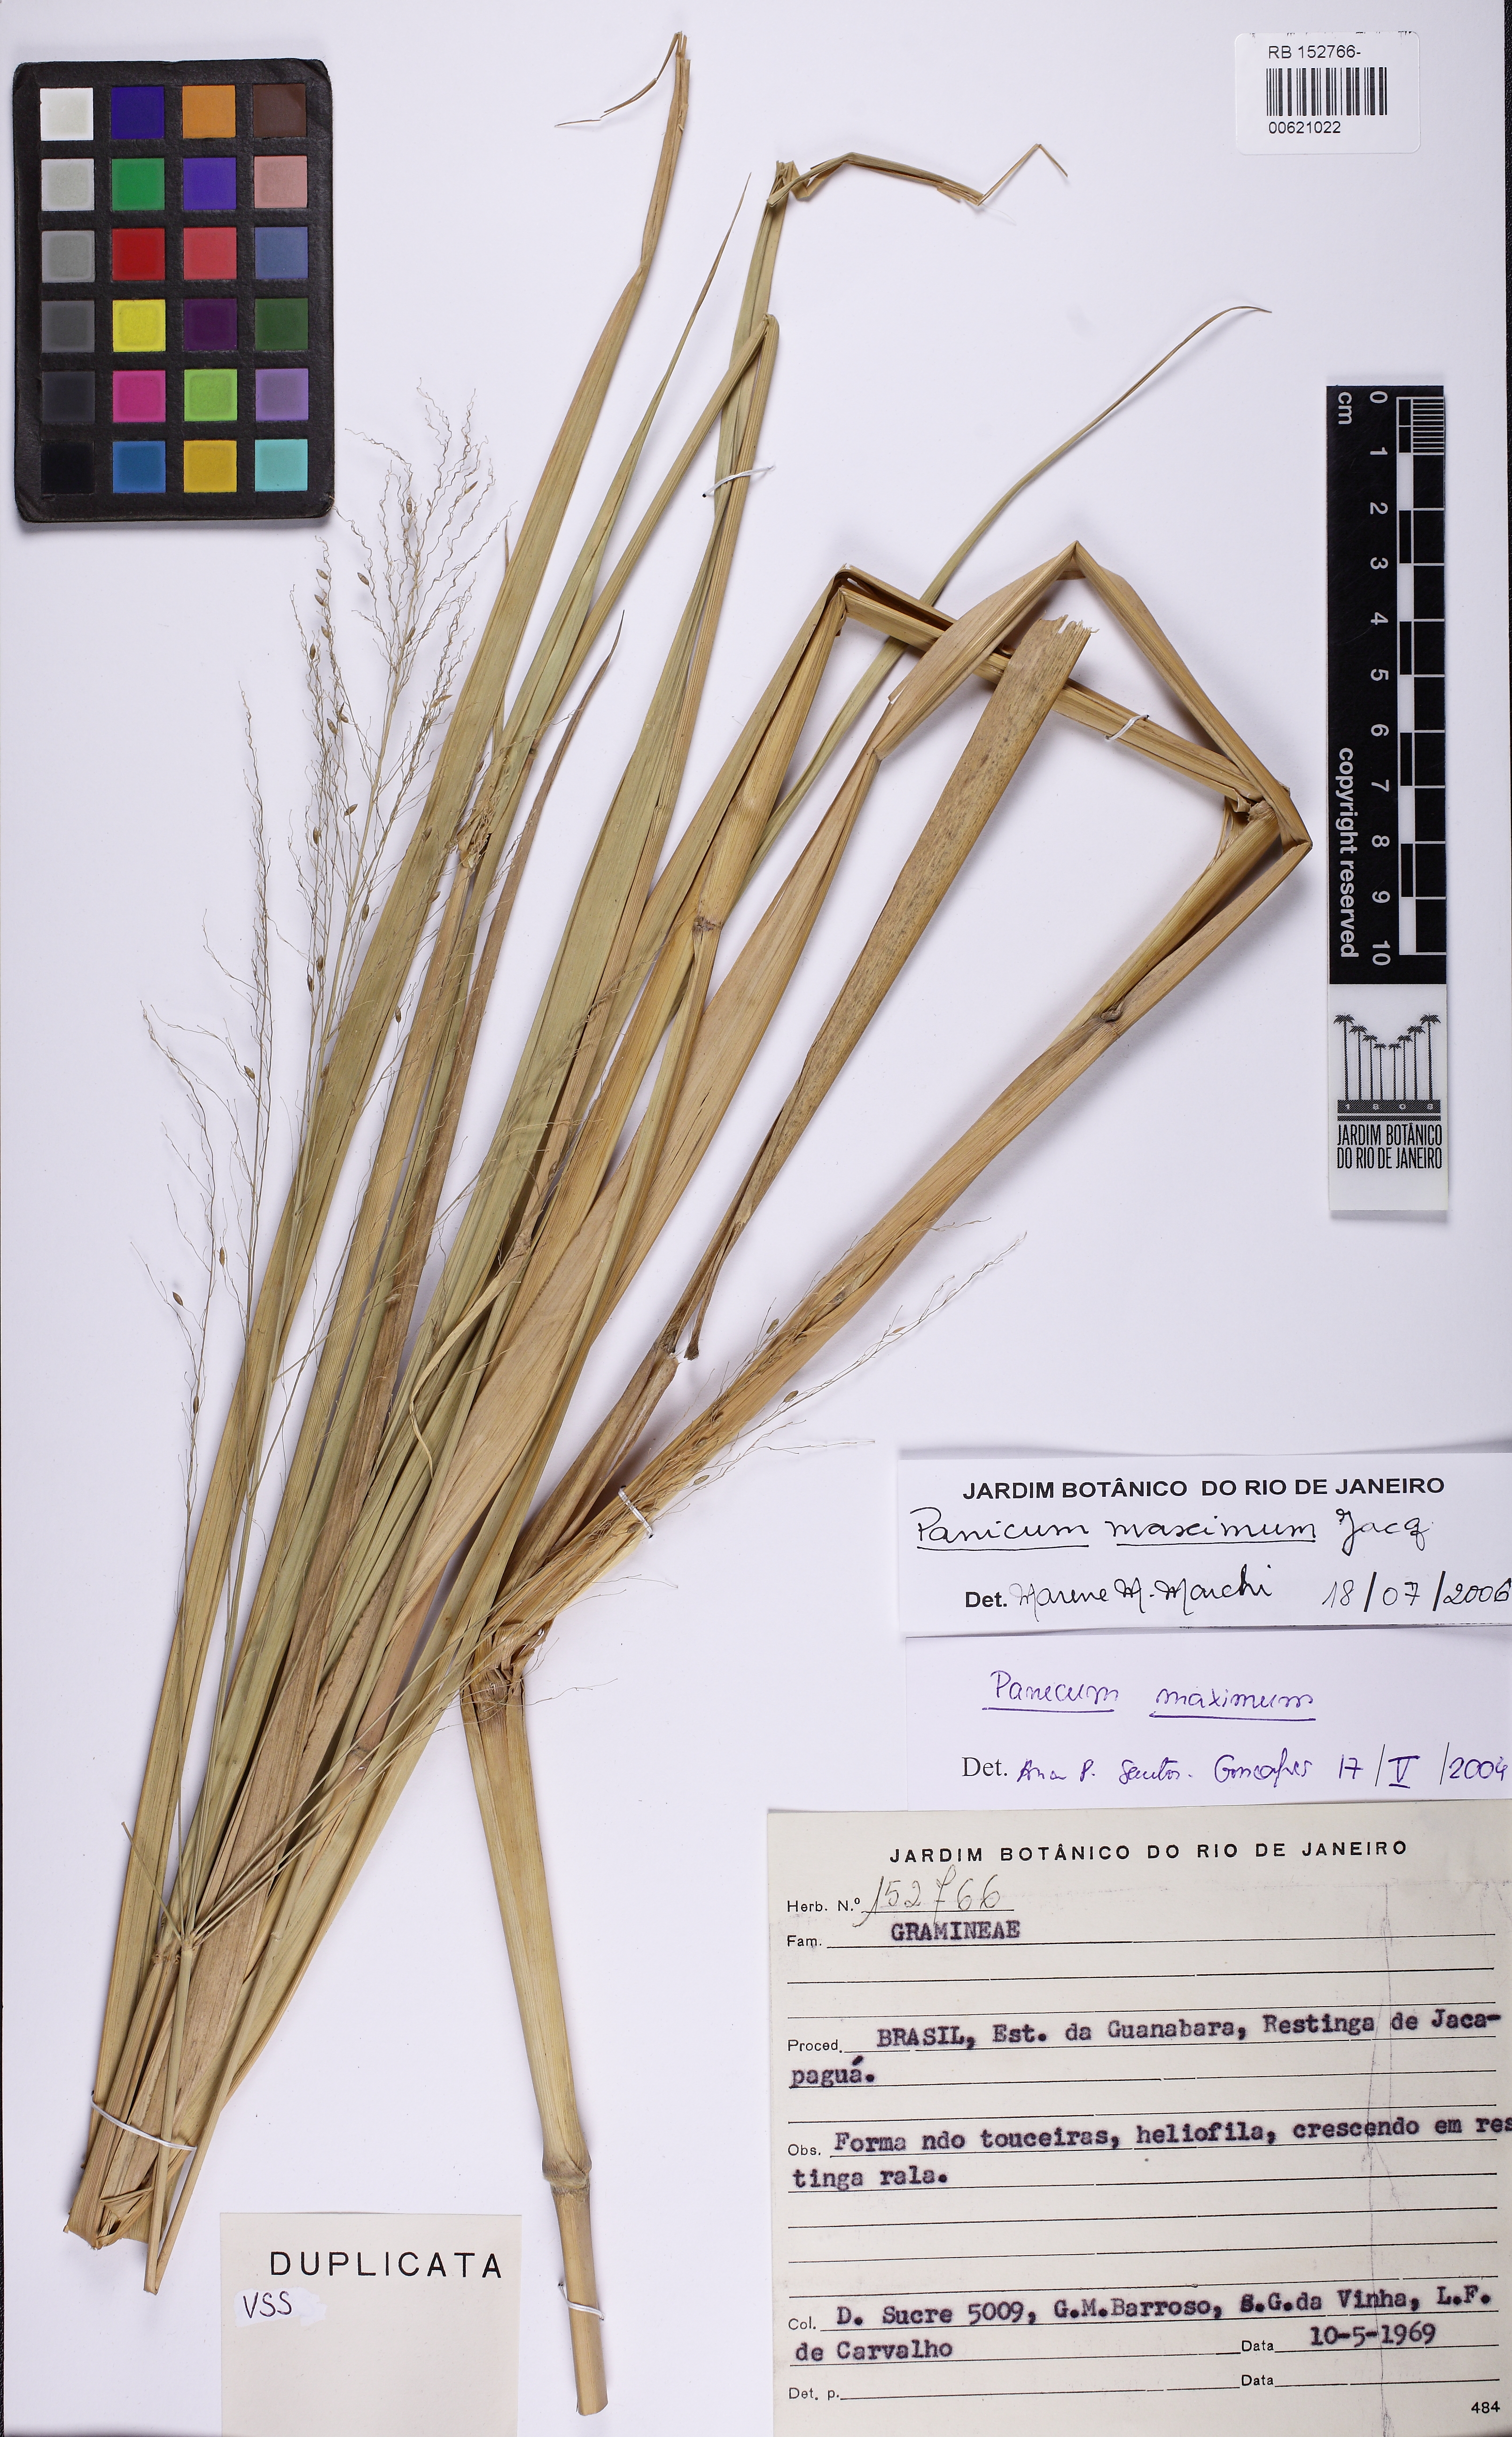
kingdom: Plantae
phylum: Tracheophyta
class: Liliopsida
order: Poales
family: Poaceae
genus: Megathyrsus
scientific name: Megathyrsus maximus
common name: Guineagrass
